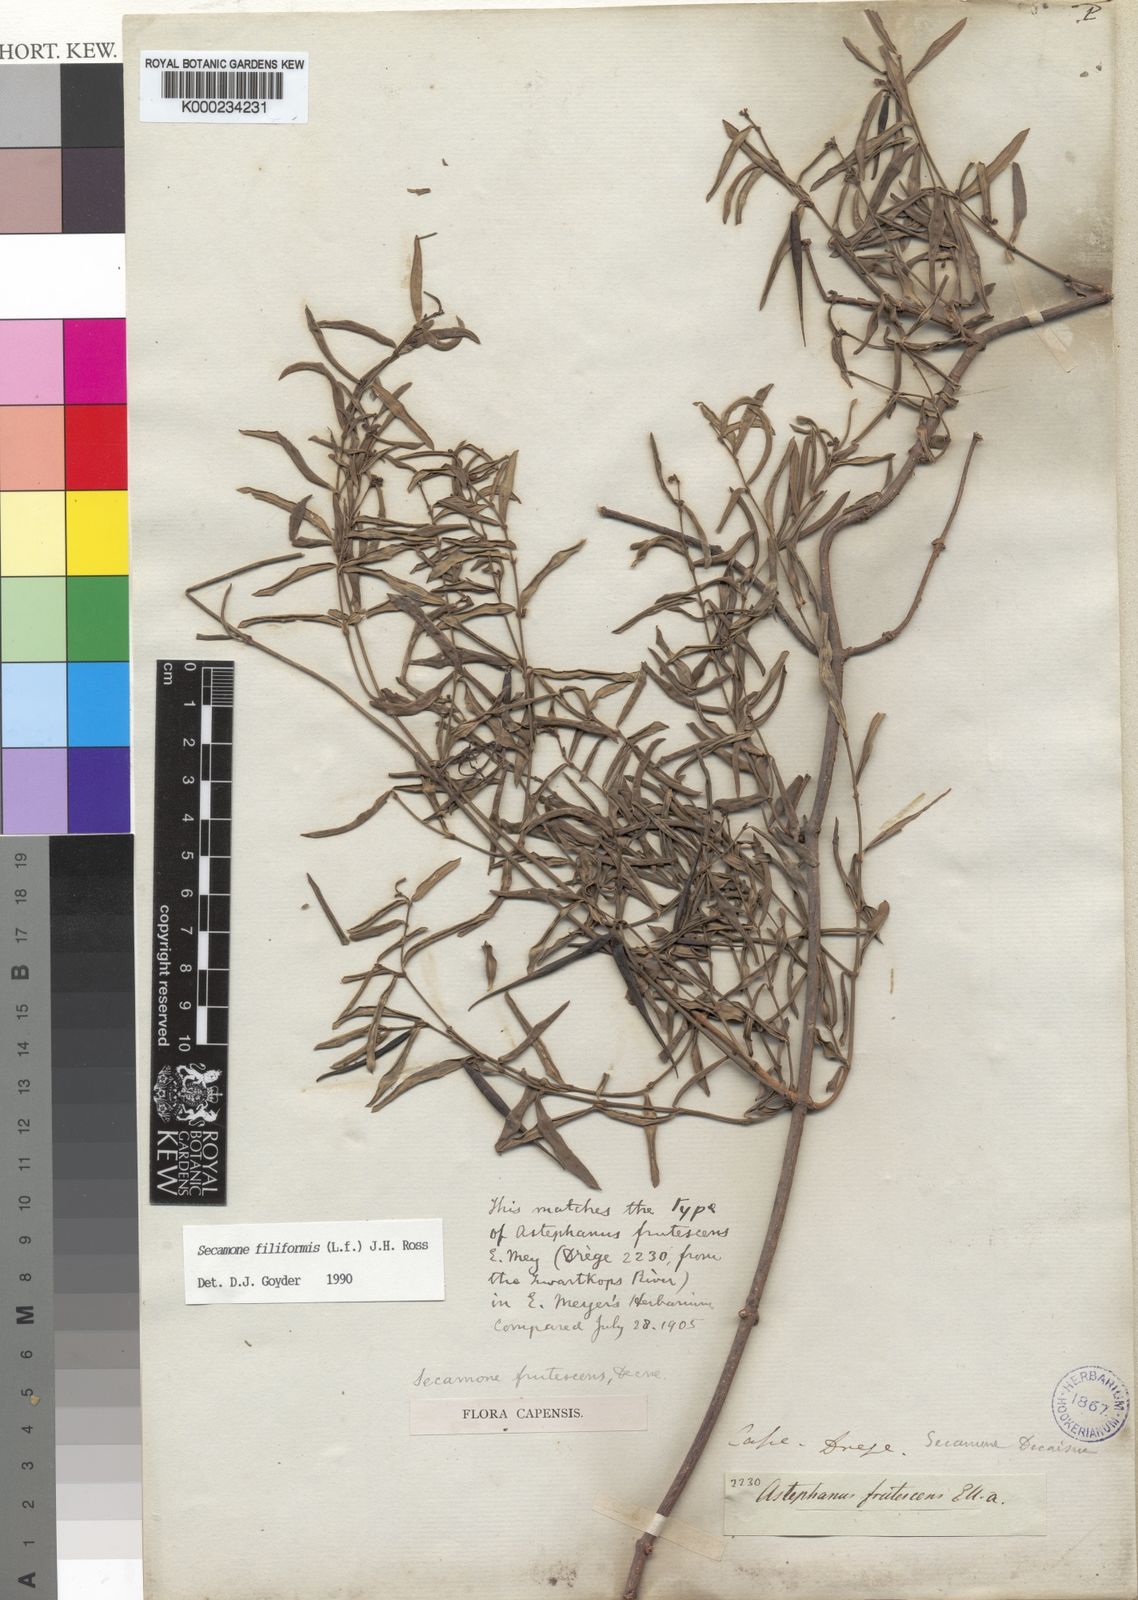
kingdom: Plantae
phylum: Tracheophyta
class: Magnoliopsida
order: Gentianales
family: Apocynaceae
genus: Secamone
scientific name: Secamone filiformis
